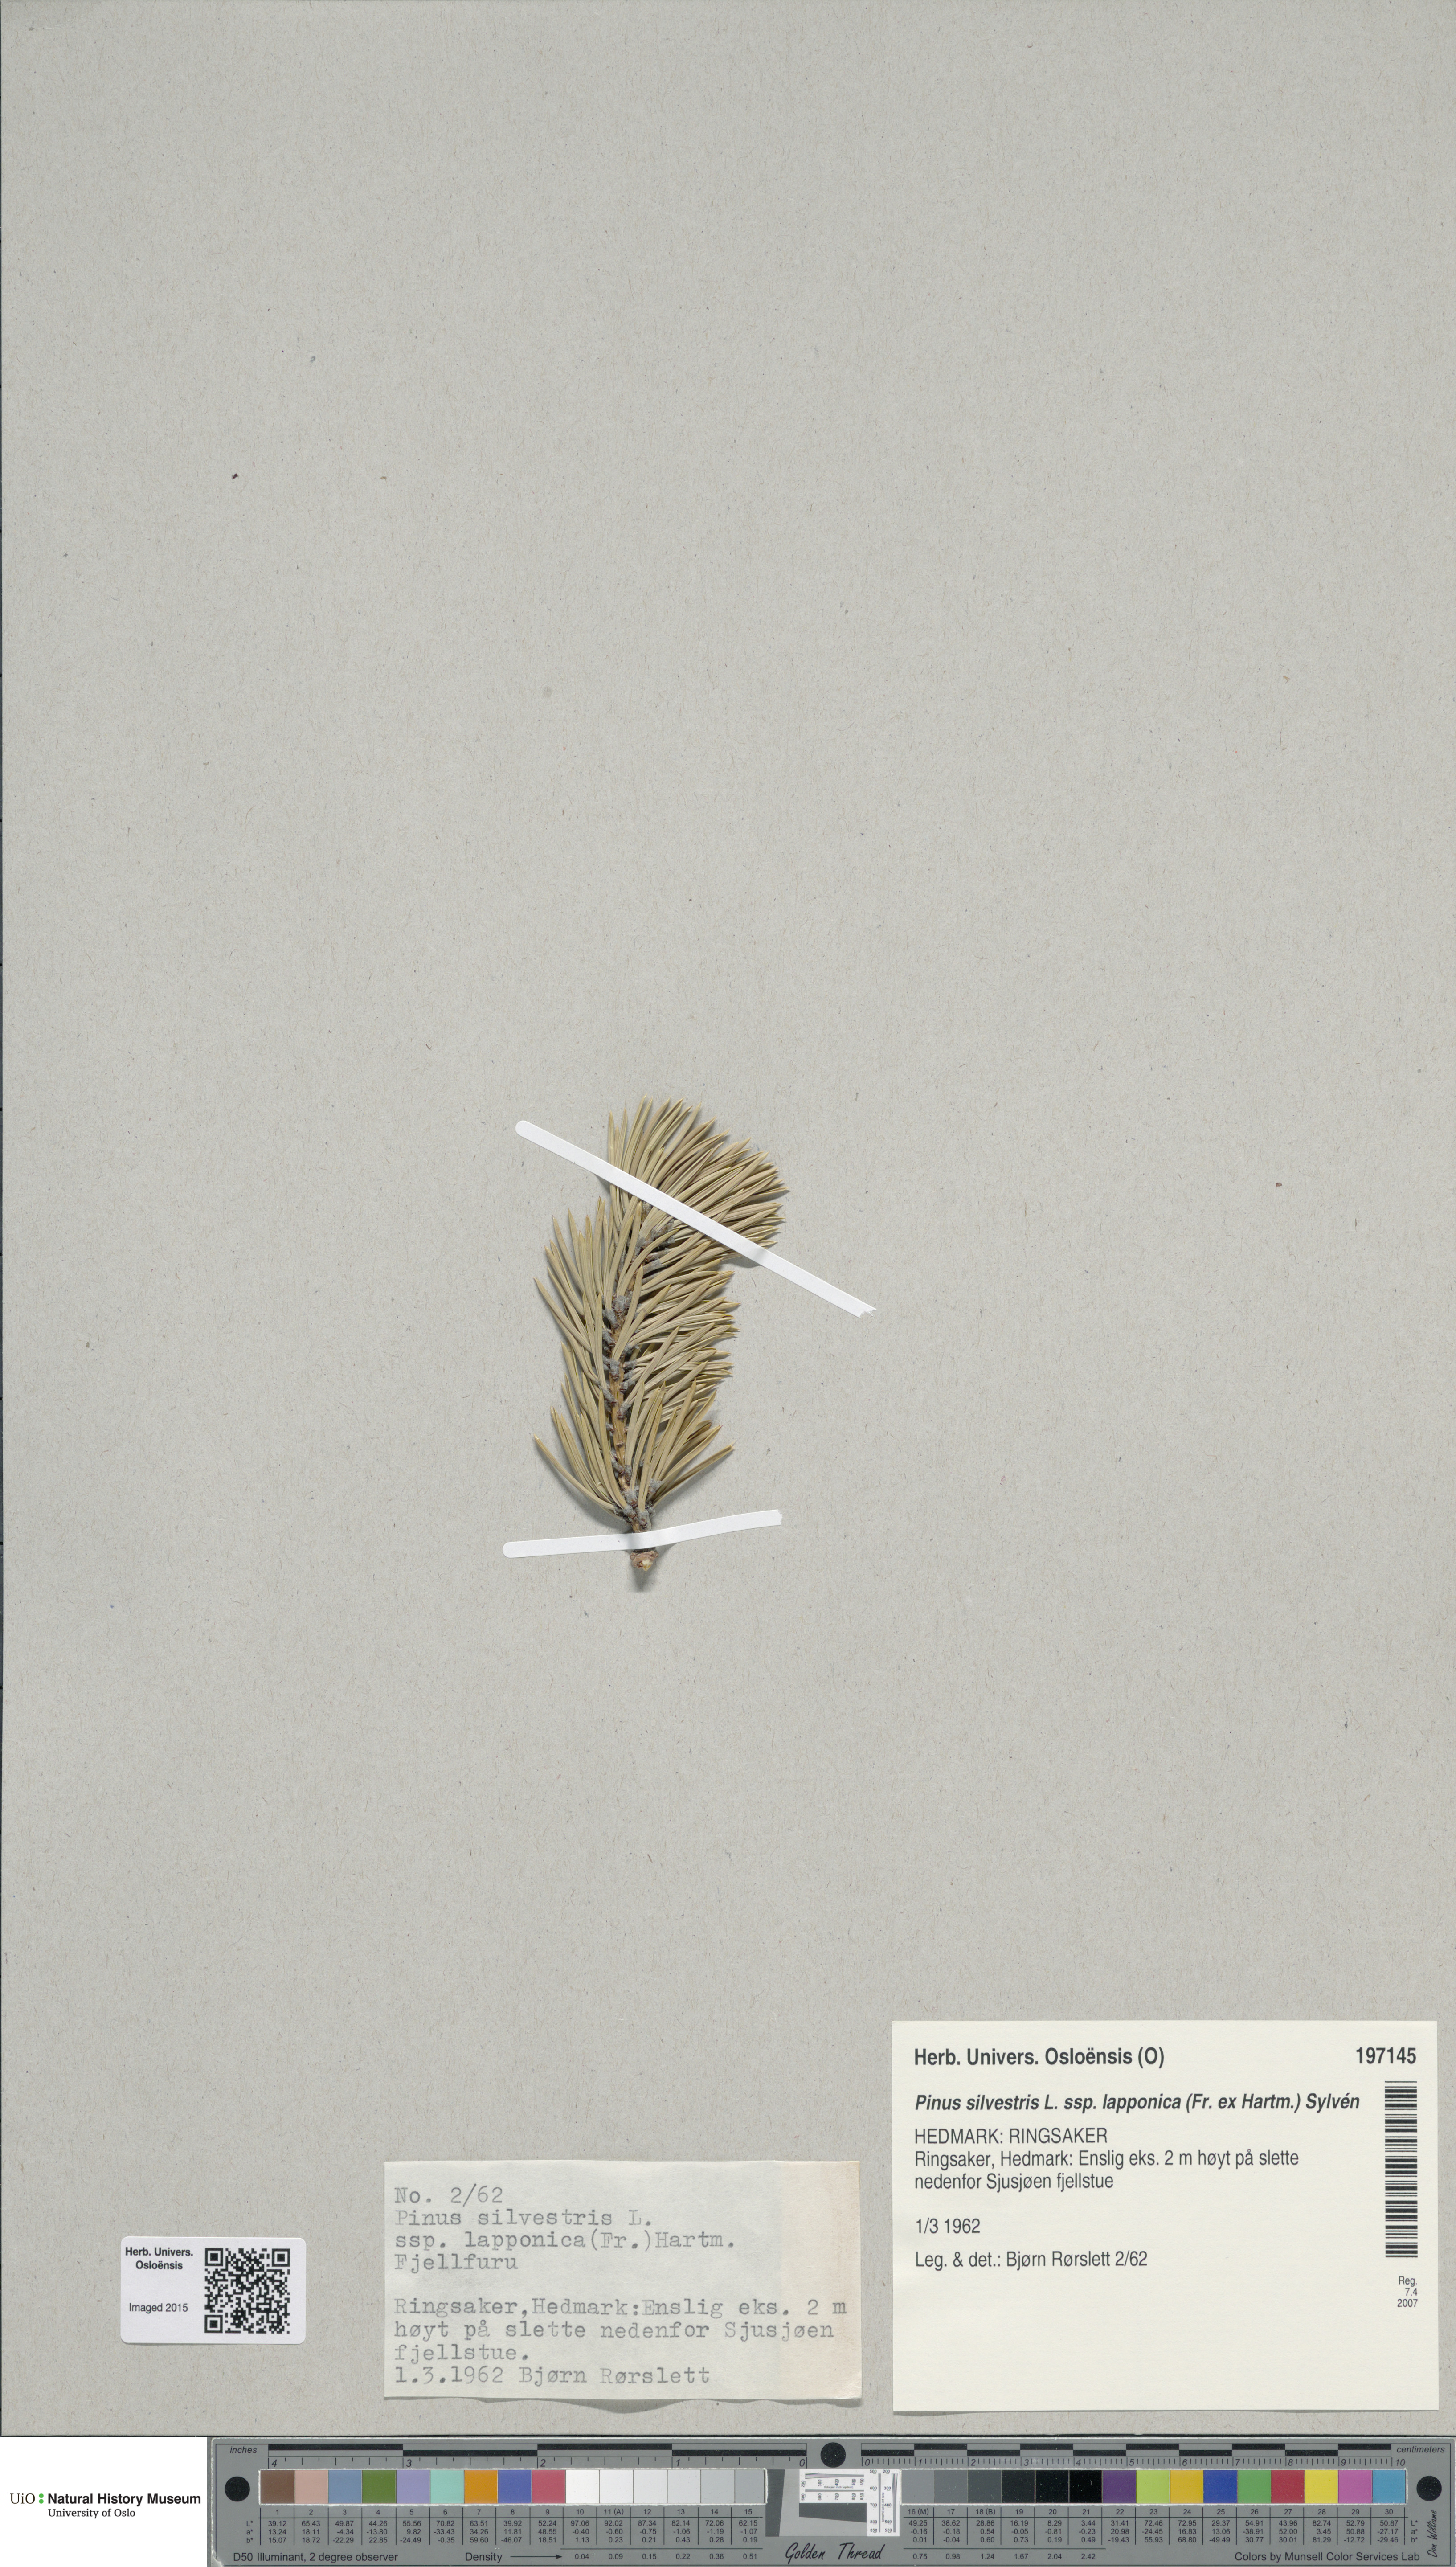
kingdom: Plantae
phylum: Tracheophyta
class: Pinopsida
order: Pinales
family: Pinaceae
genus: Pinus
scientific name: Pinus sylvestris
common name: Scots pine
